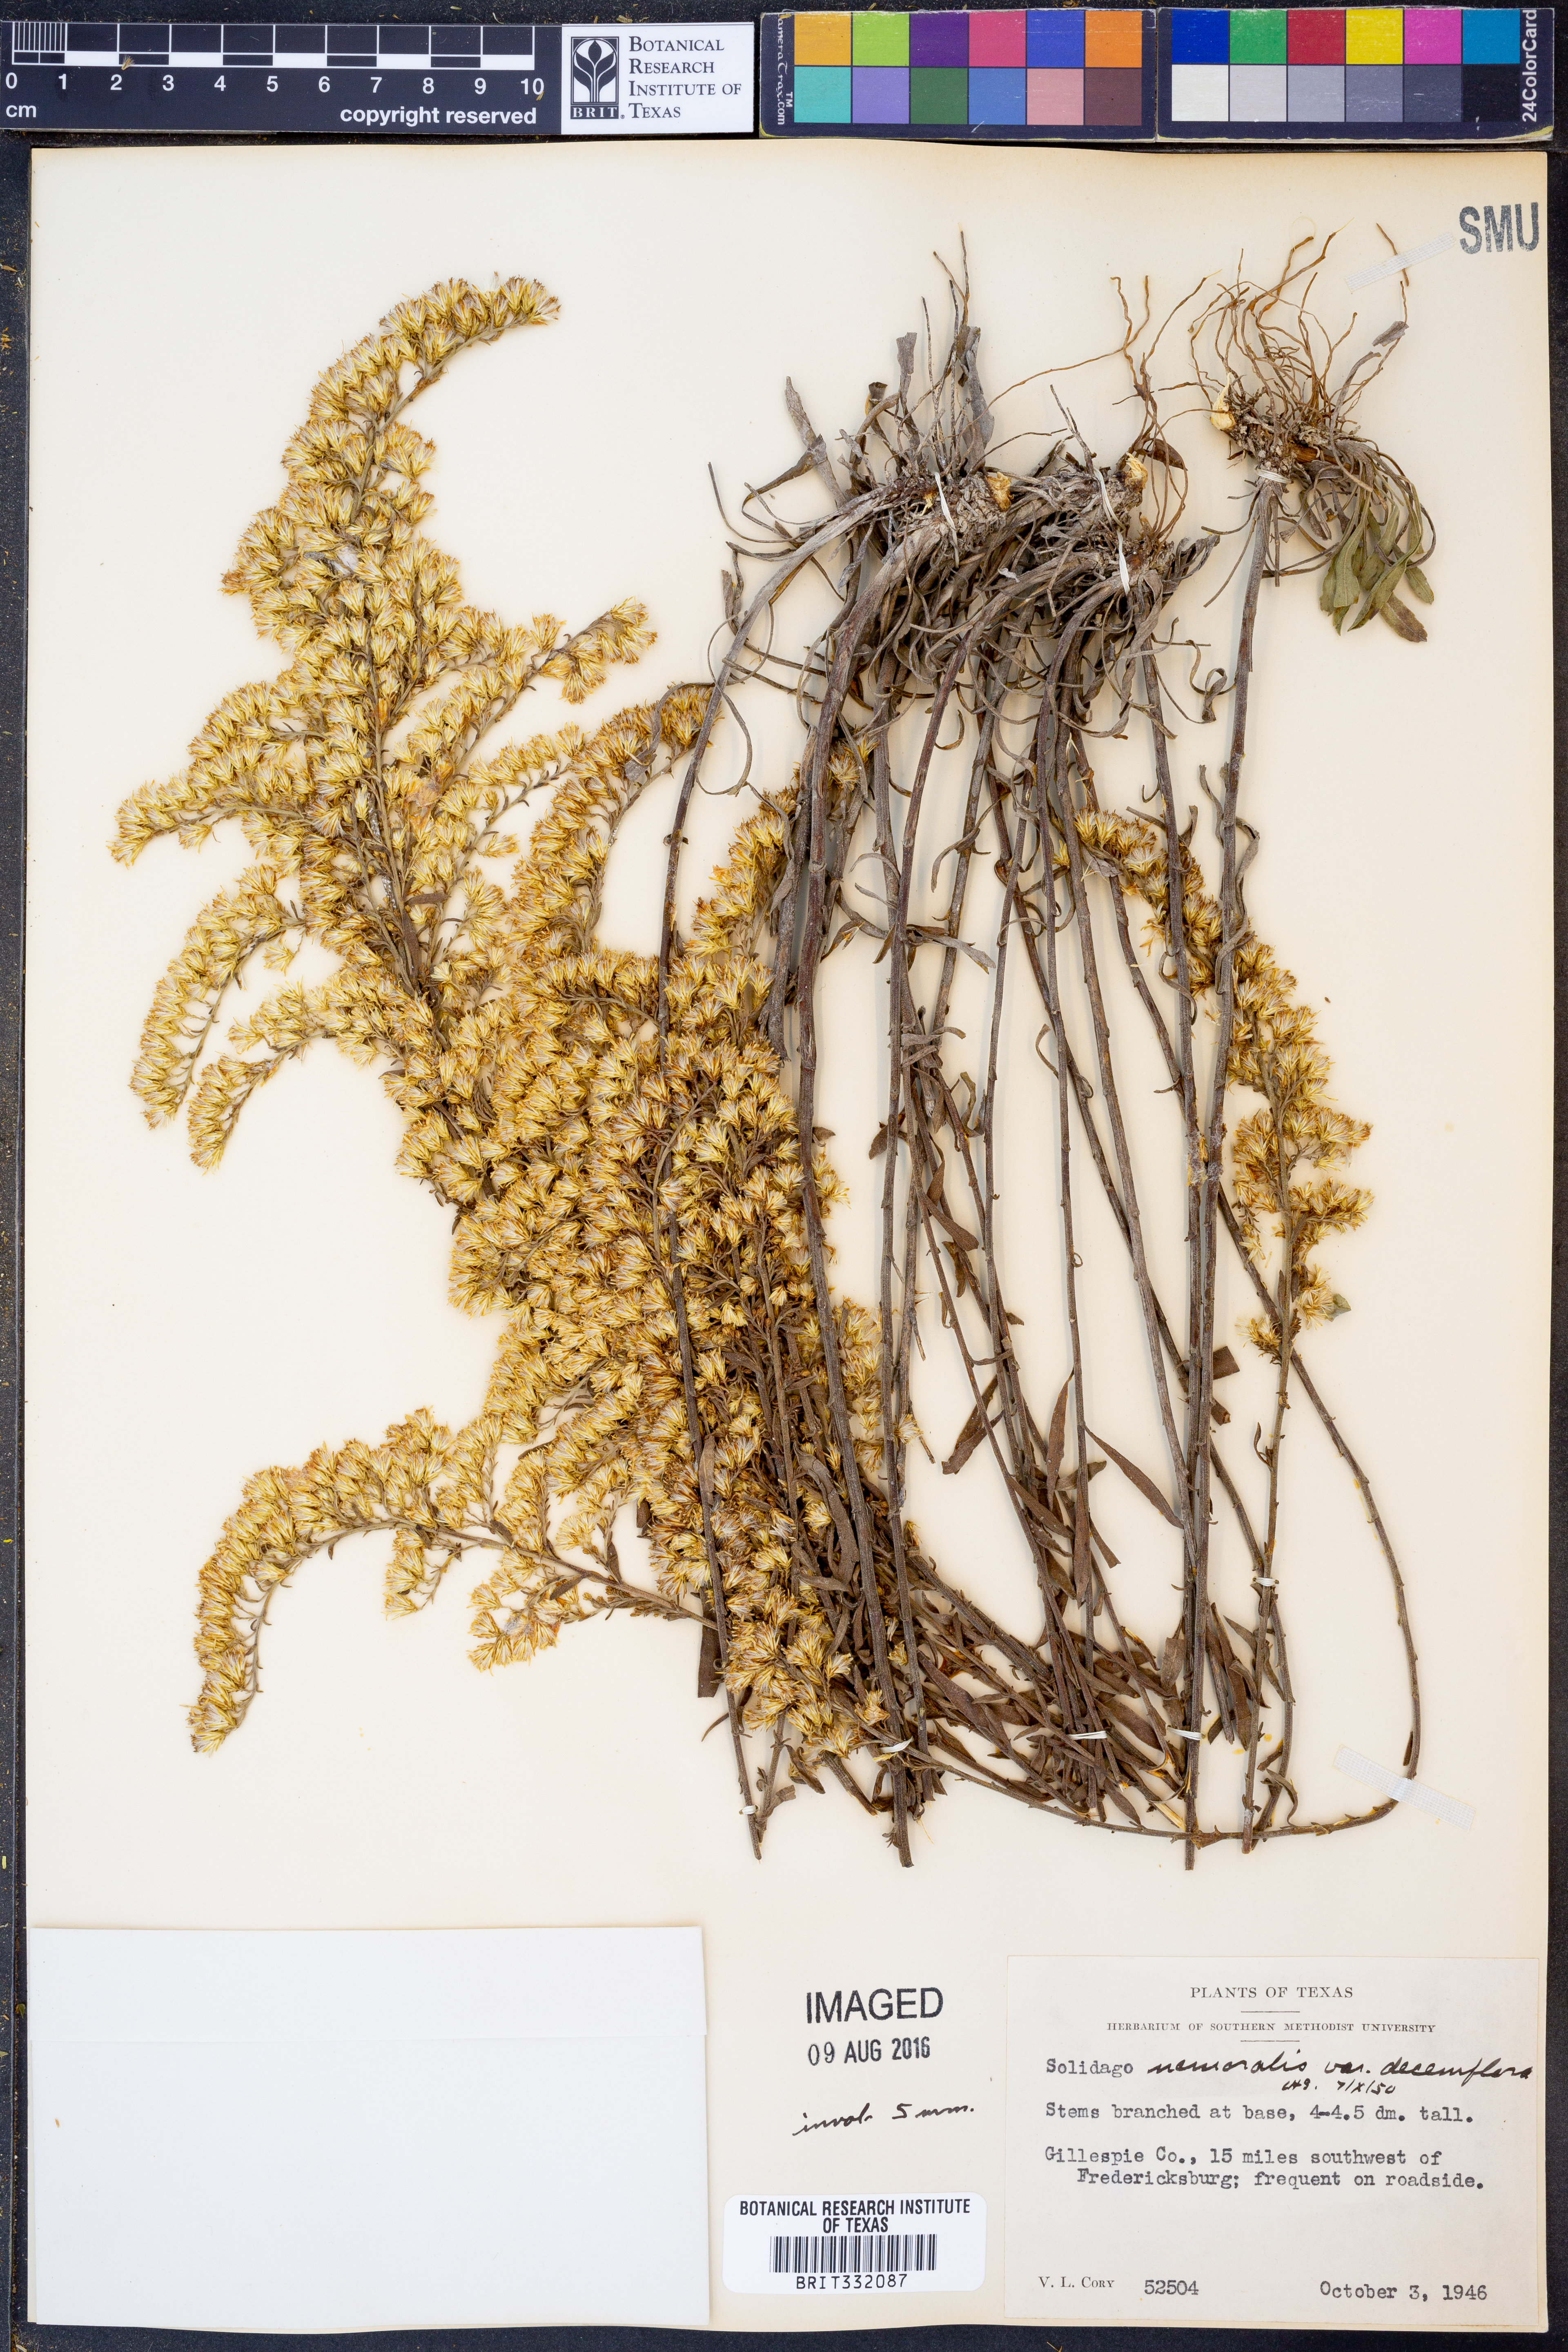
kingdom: Plantae
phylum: Tracheophyta
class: Magnoliopsida
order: Asterales
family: Asteraceae
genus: Solidago
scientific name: Solidago decemflora
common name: Prairie grey-stemmed goldenrod
